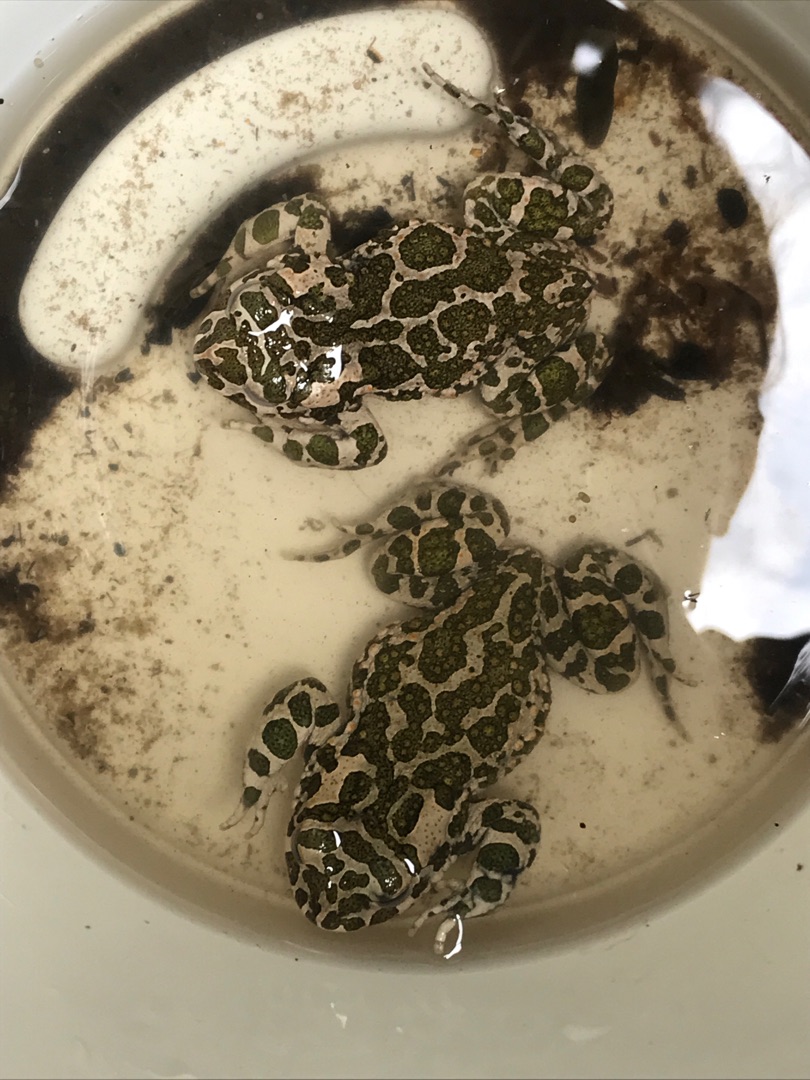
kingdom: Animalia
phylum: Chordata
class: Amphibia
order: Anura
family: Bufonidae
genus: Bufotes
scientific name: Bufotes viridis
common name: Grønbroget tudse
